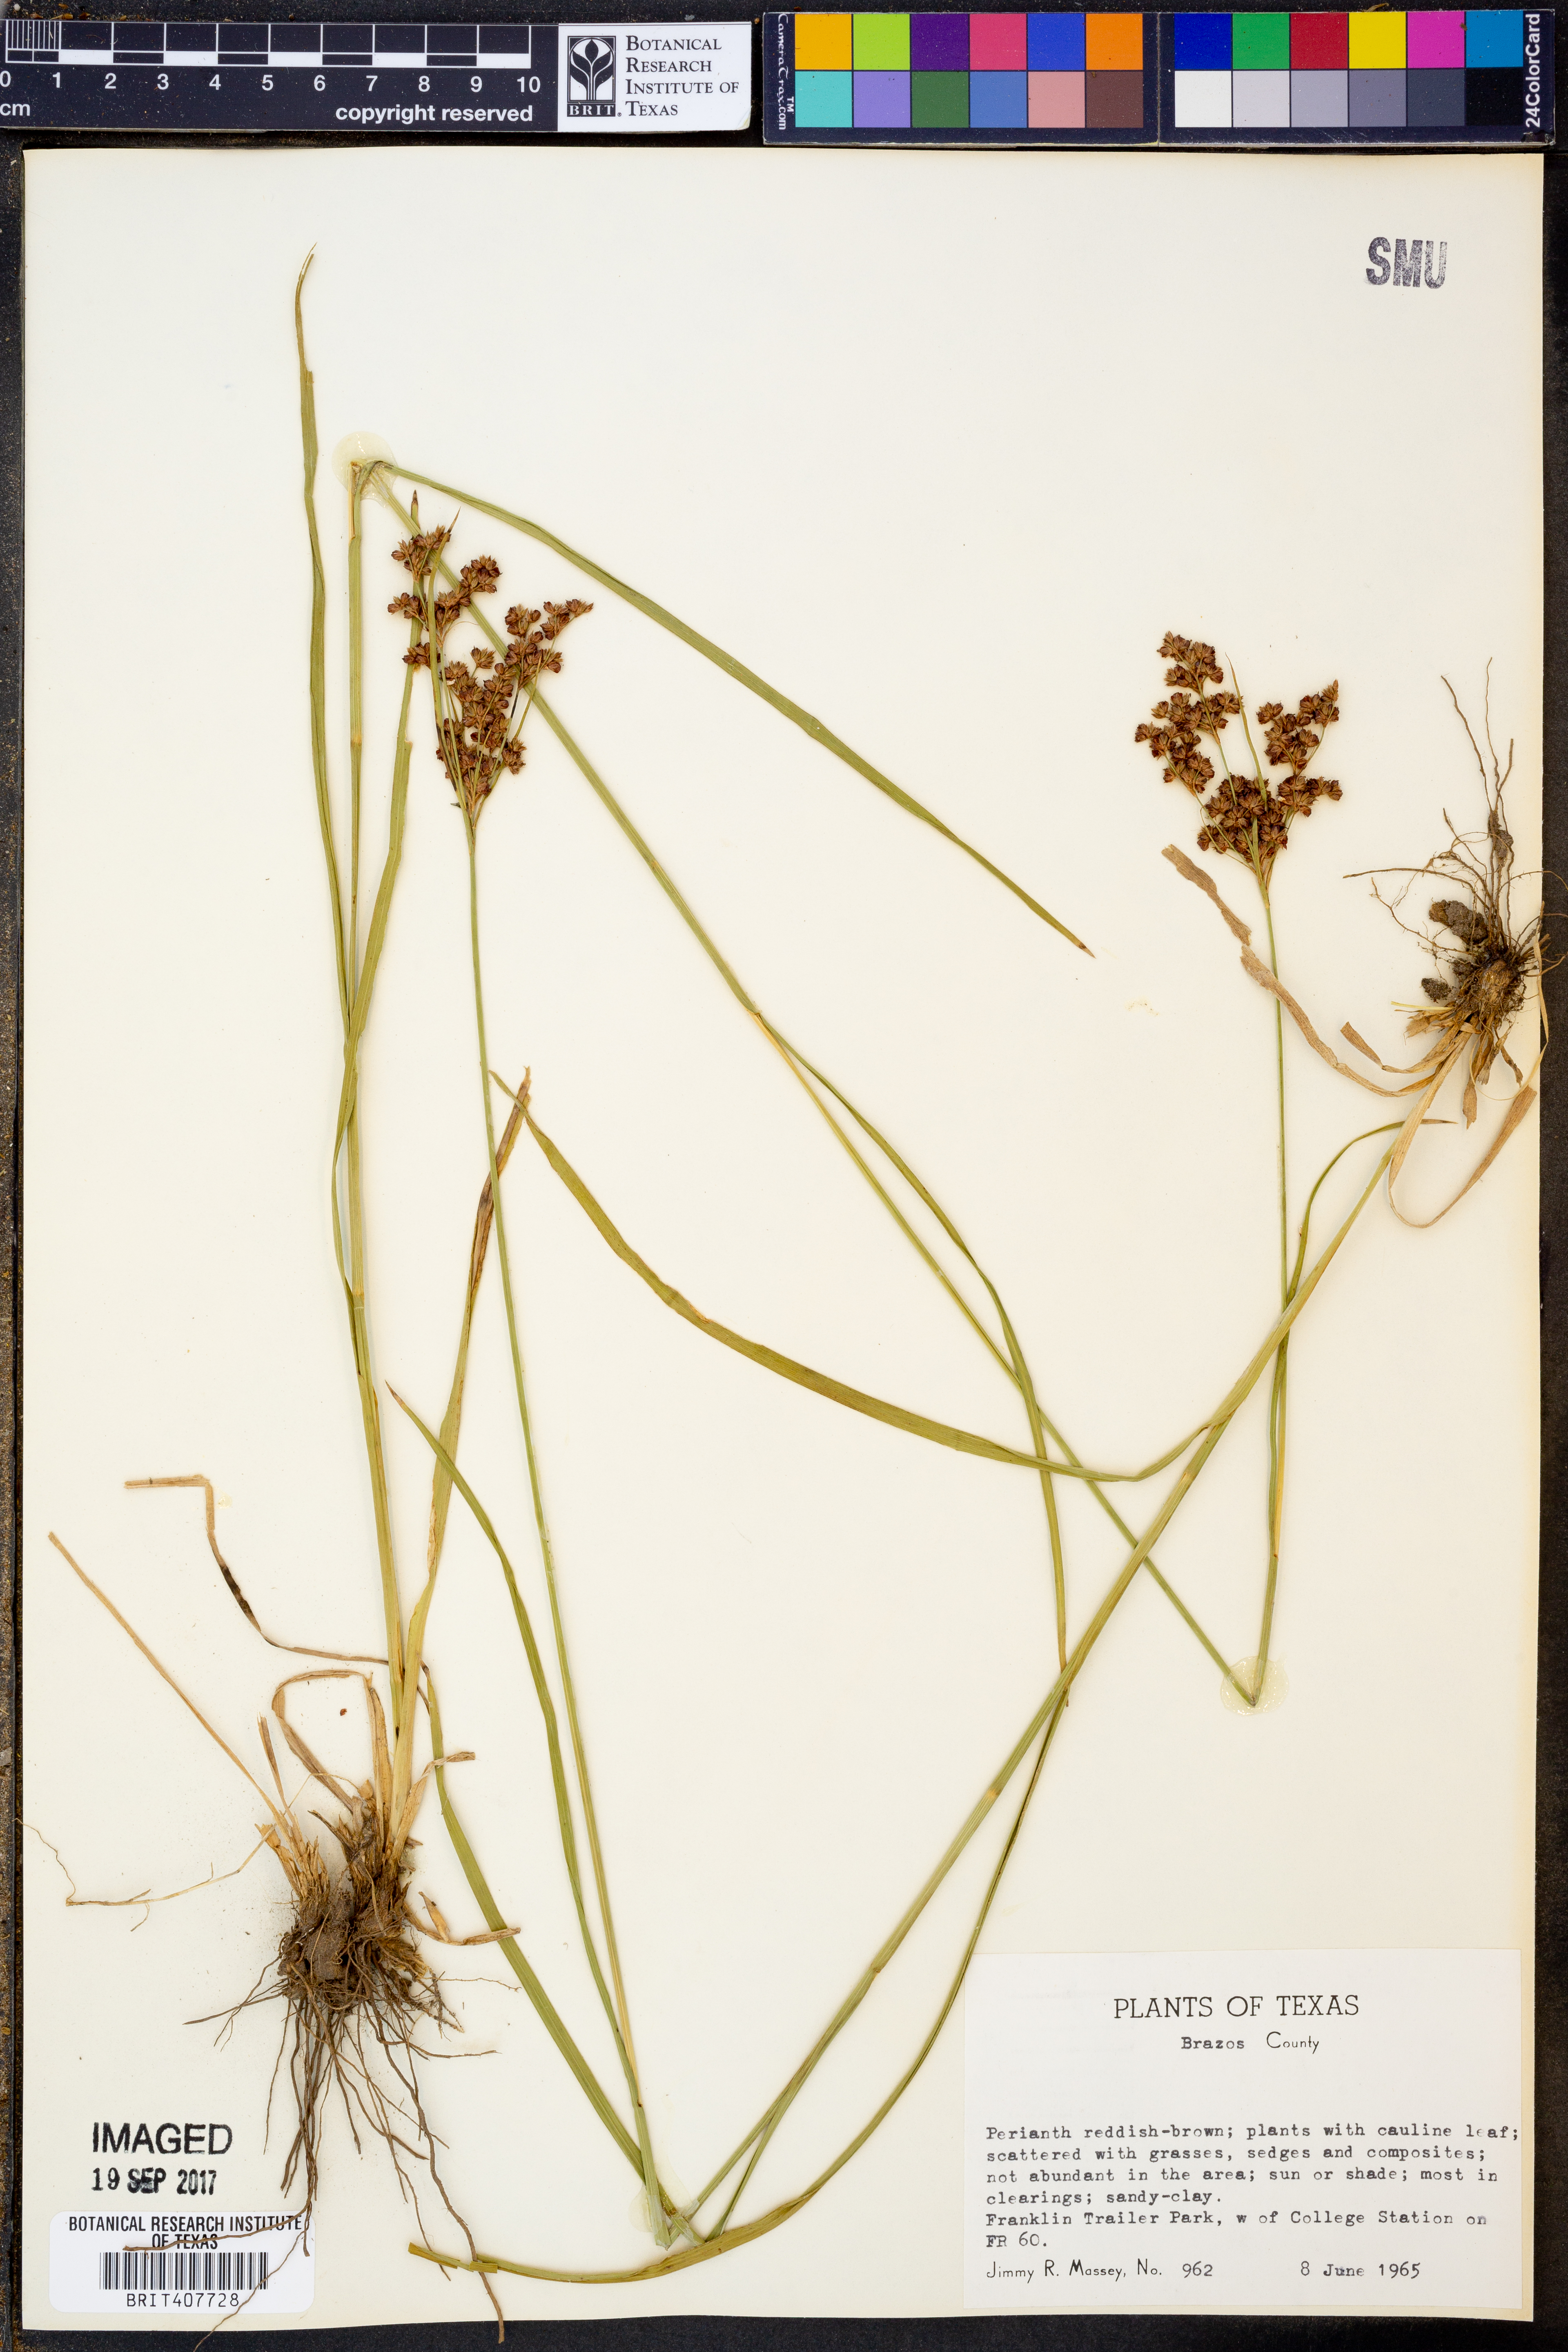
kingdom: Plantae
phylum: Tracheophyta
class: Liliopsida
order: Poales
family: Cyperaceae
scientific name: Cyperaceae
